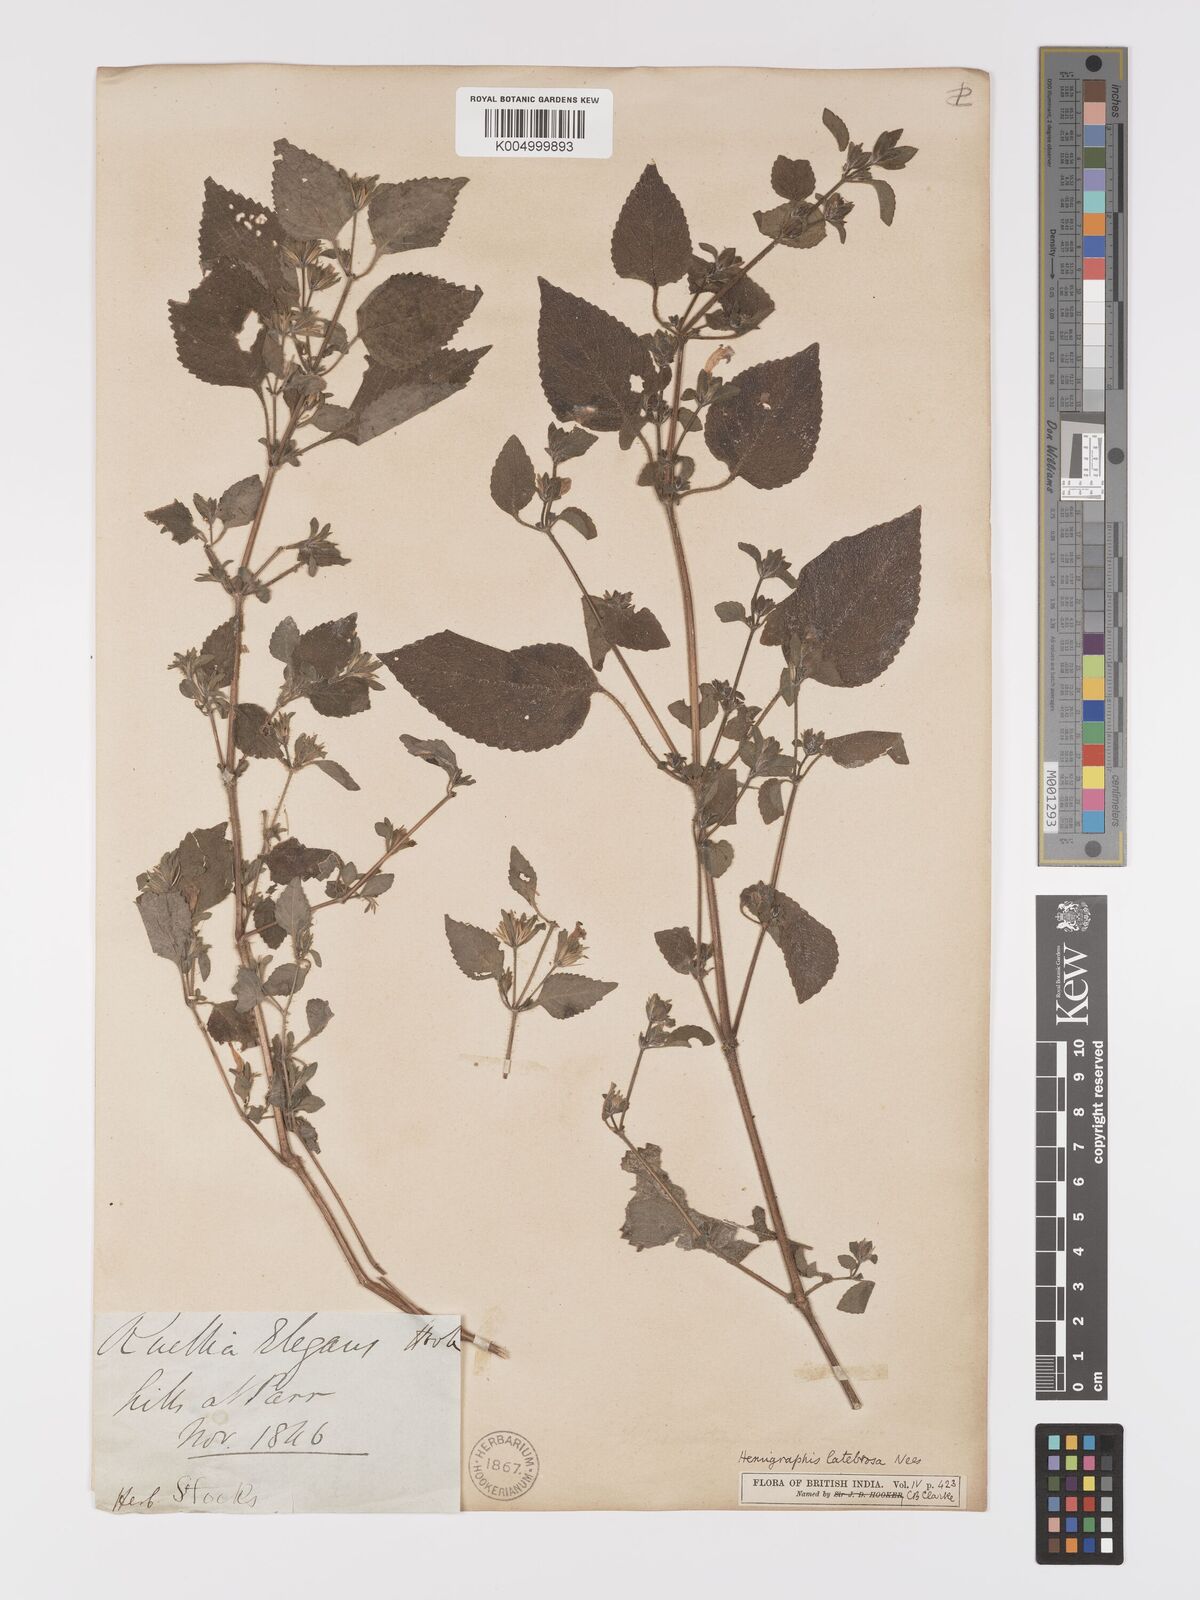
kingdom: Plantae
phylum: Tracheophyta
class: Magnoliopsida
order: Lamiales
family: Acanthaceae
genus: Strobilanthes
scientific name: Strobilanthes latebrosa
